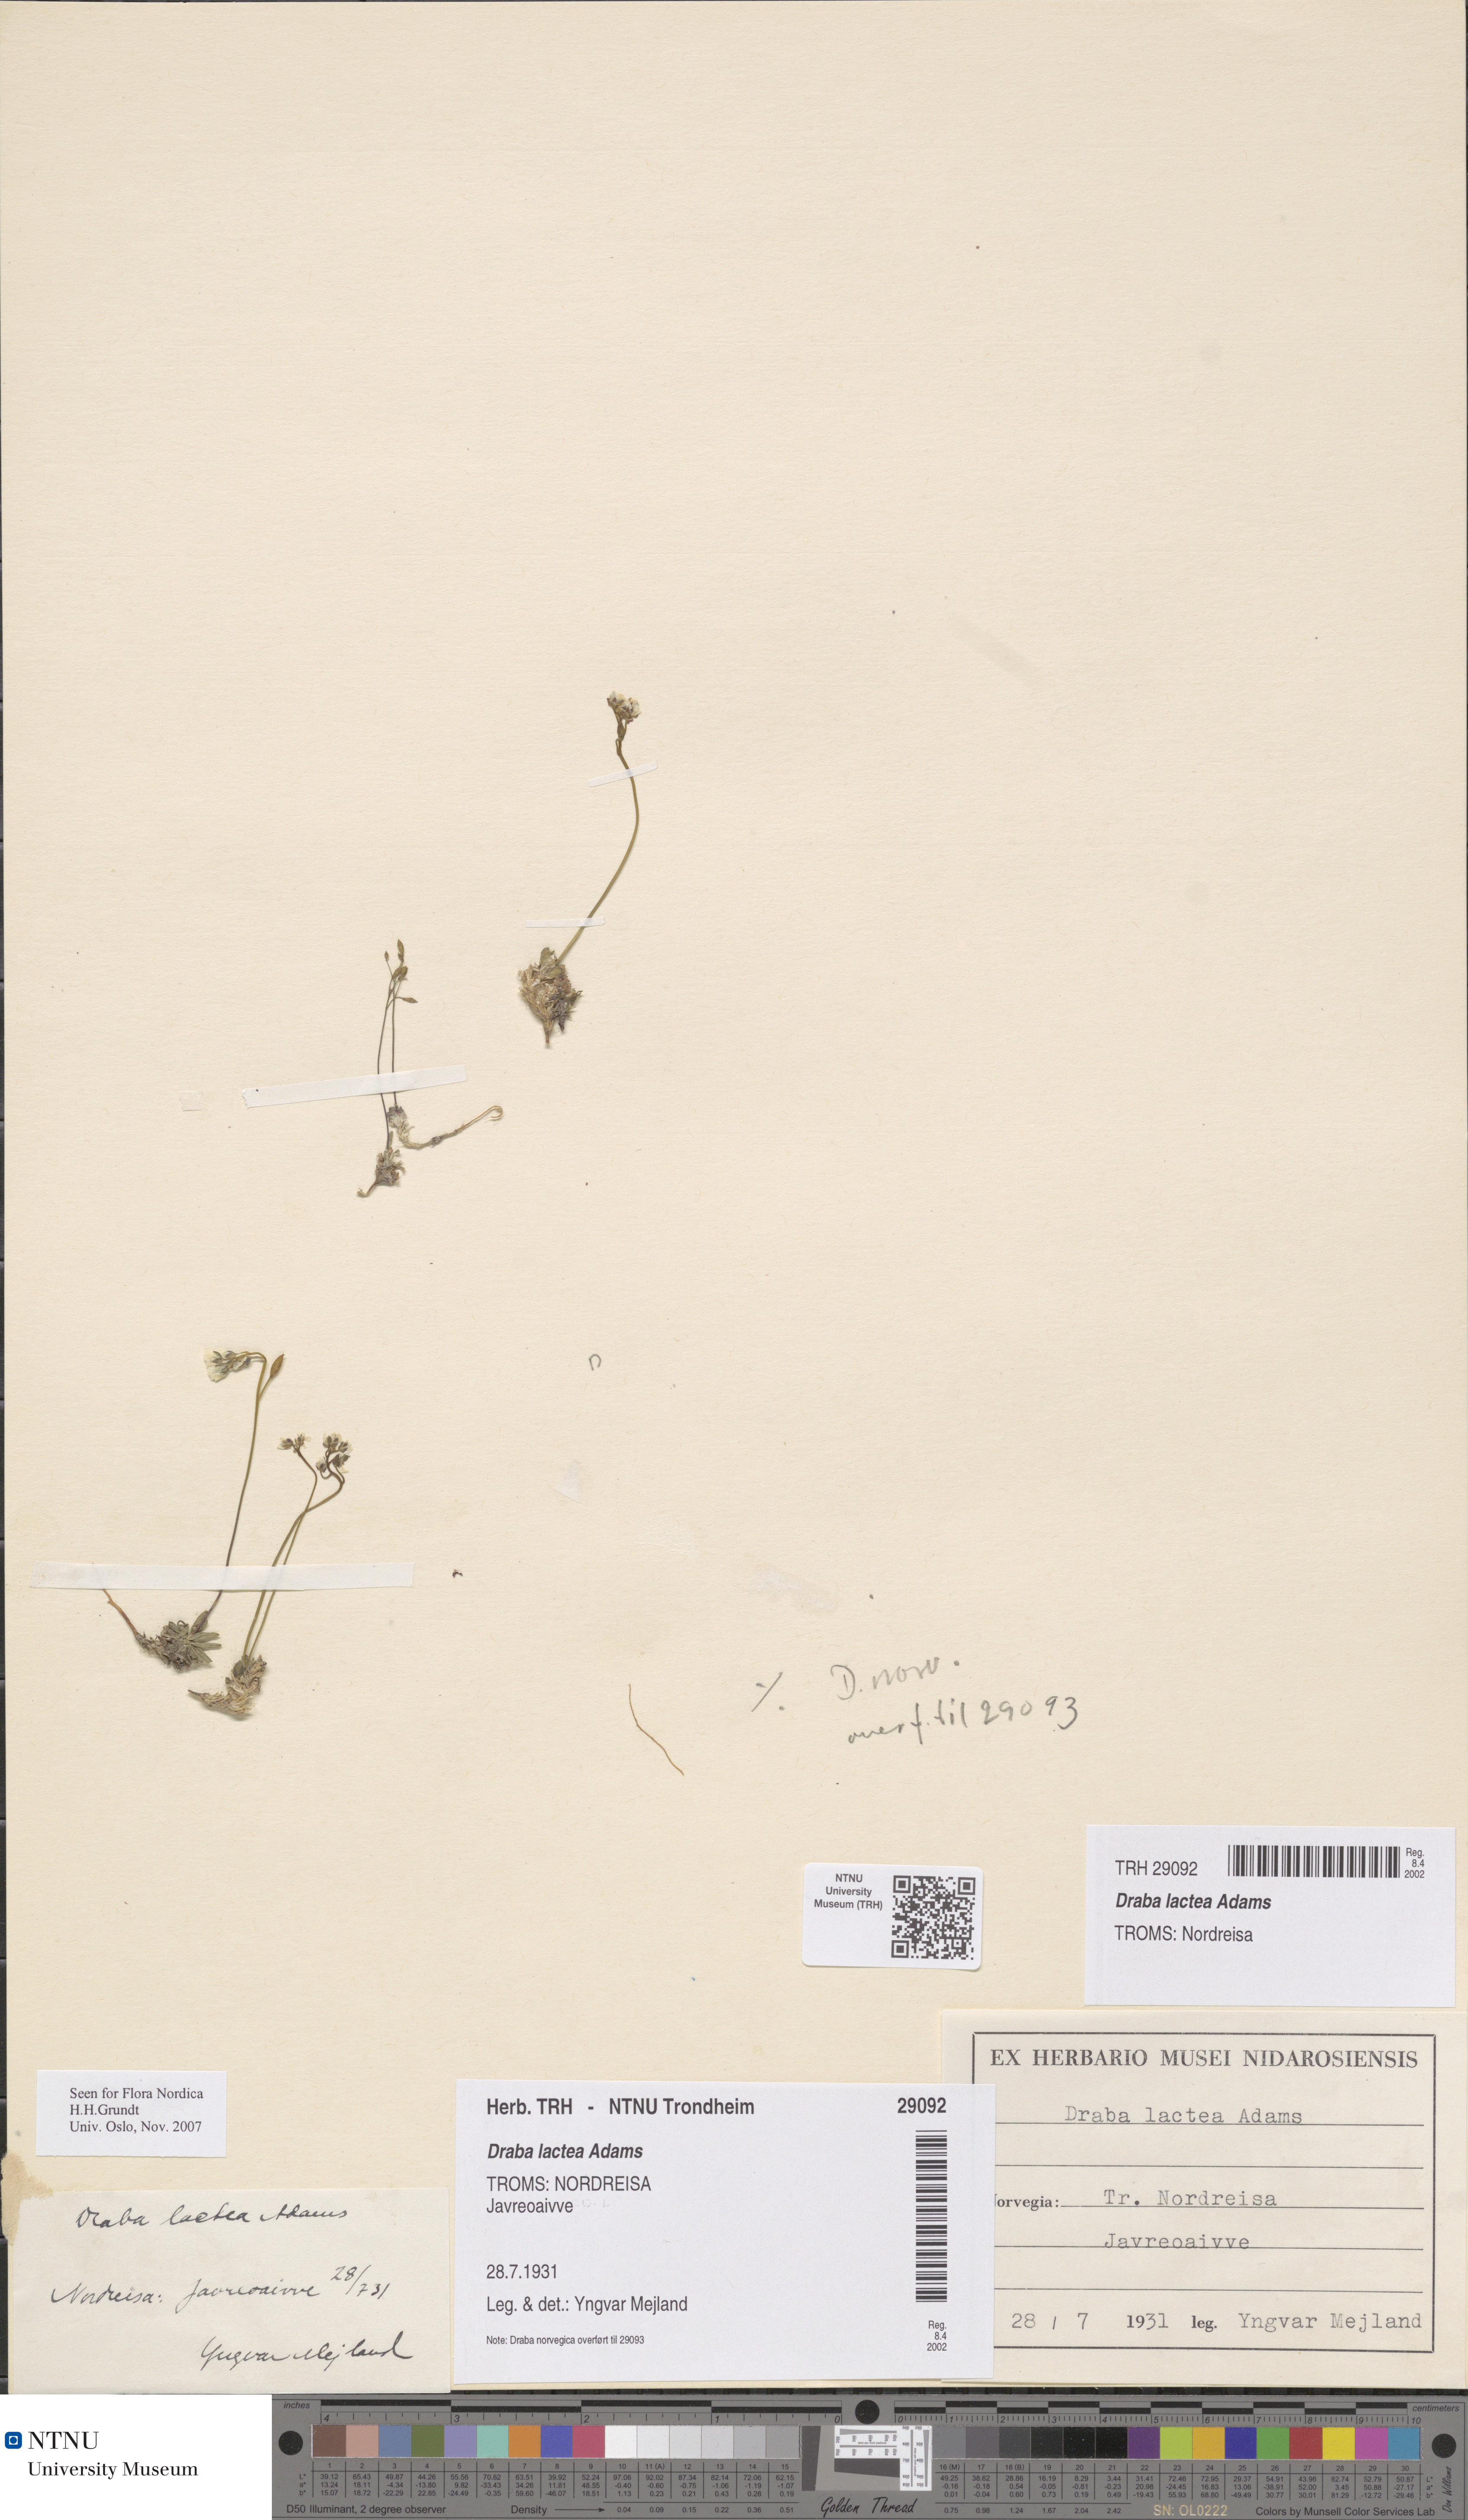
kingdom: Plantae
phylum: Tracheophyta
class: Magnoliopsida
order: Brassicales
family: Brassicaceae
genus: Draba
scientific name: Draba lactea
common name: Milky draba
